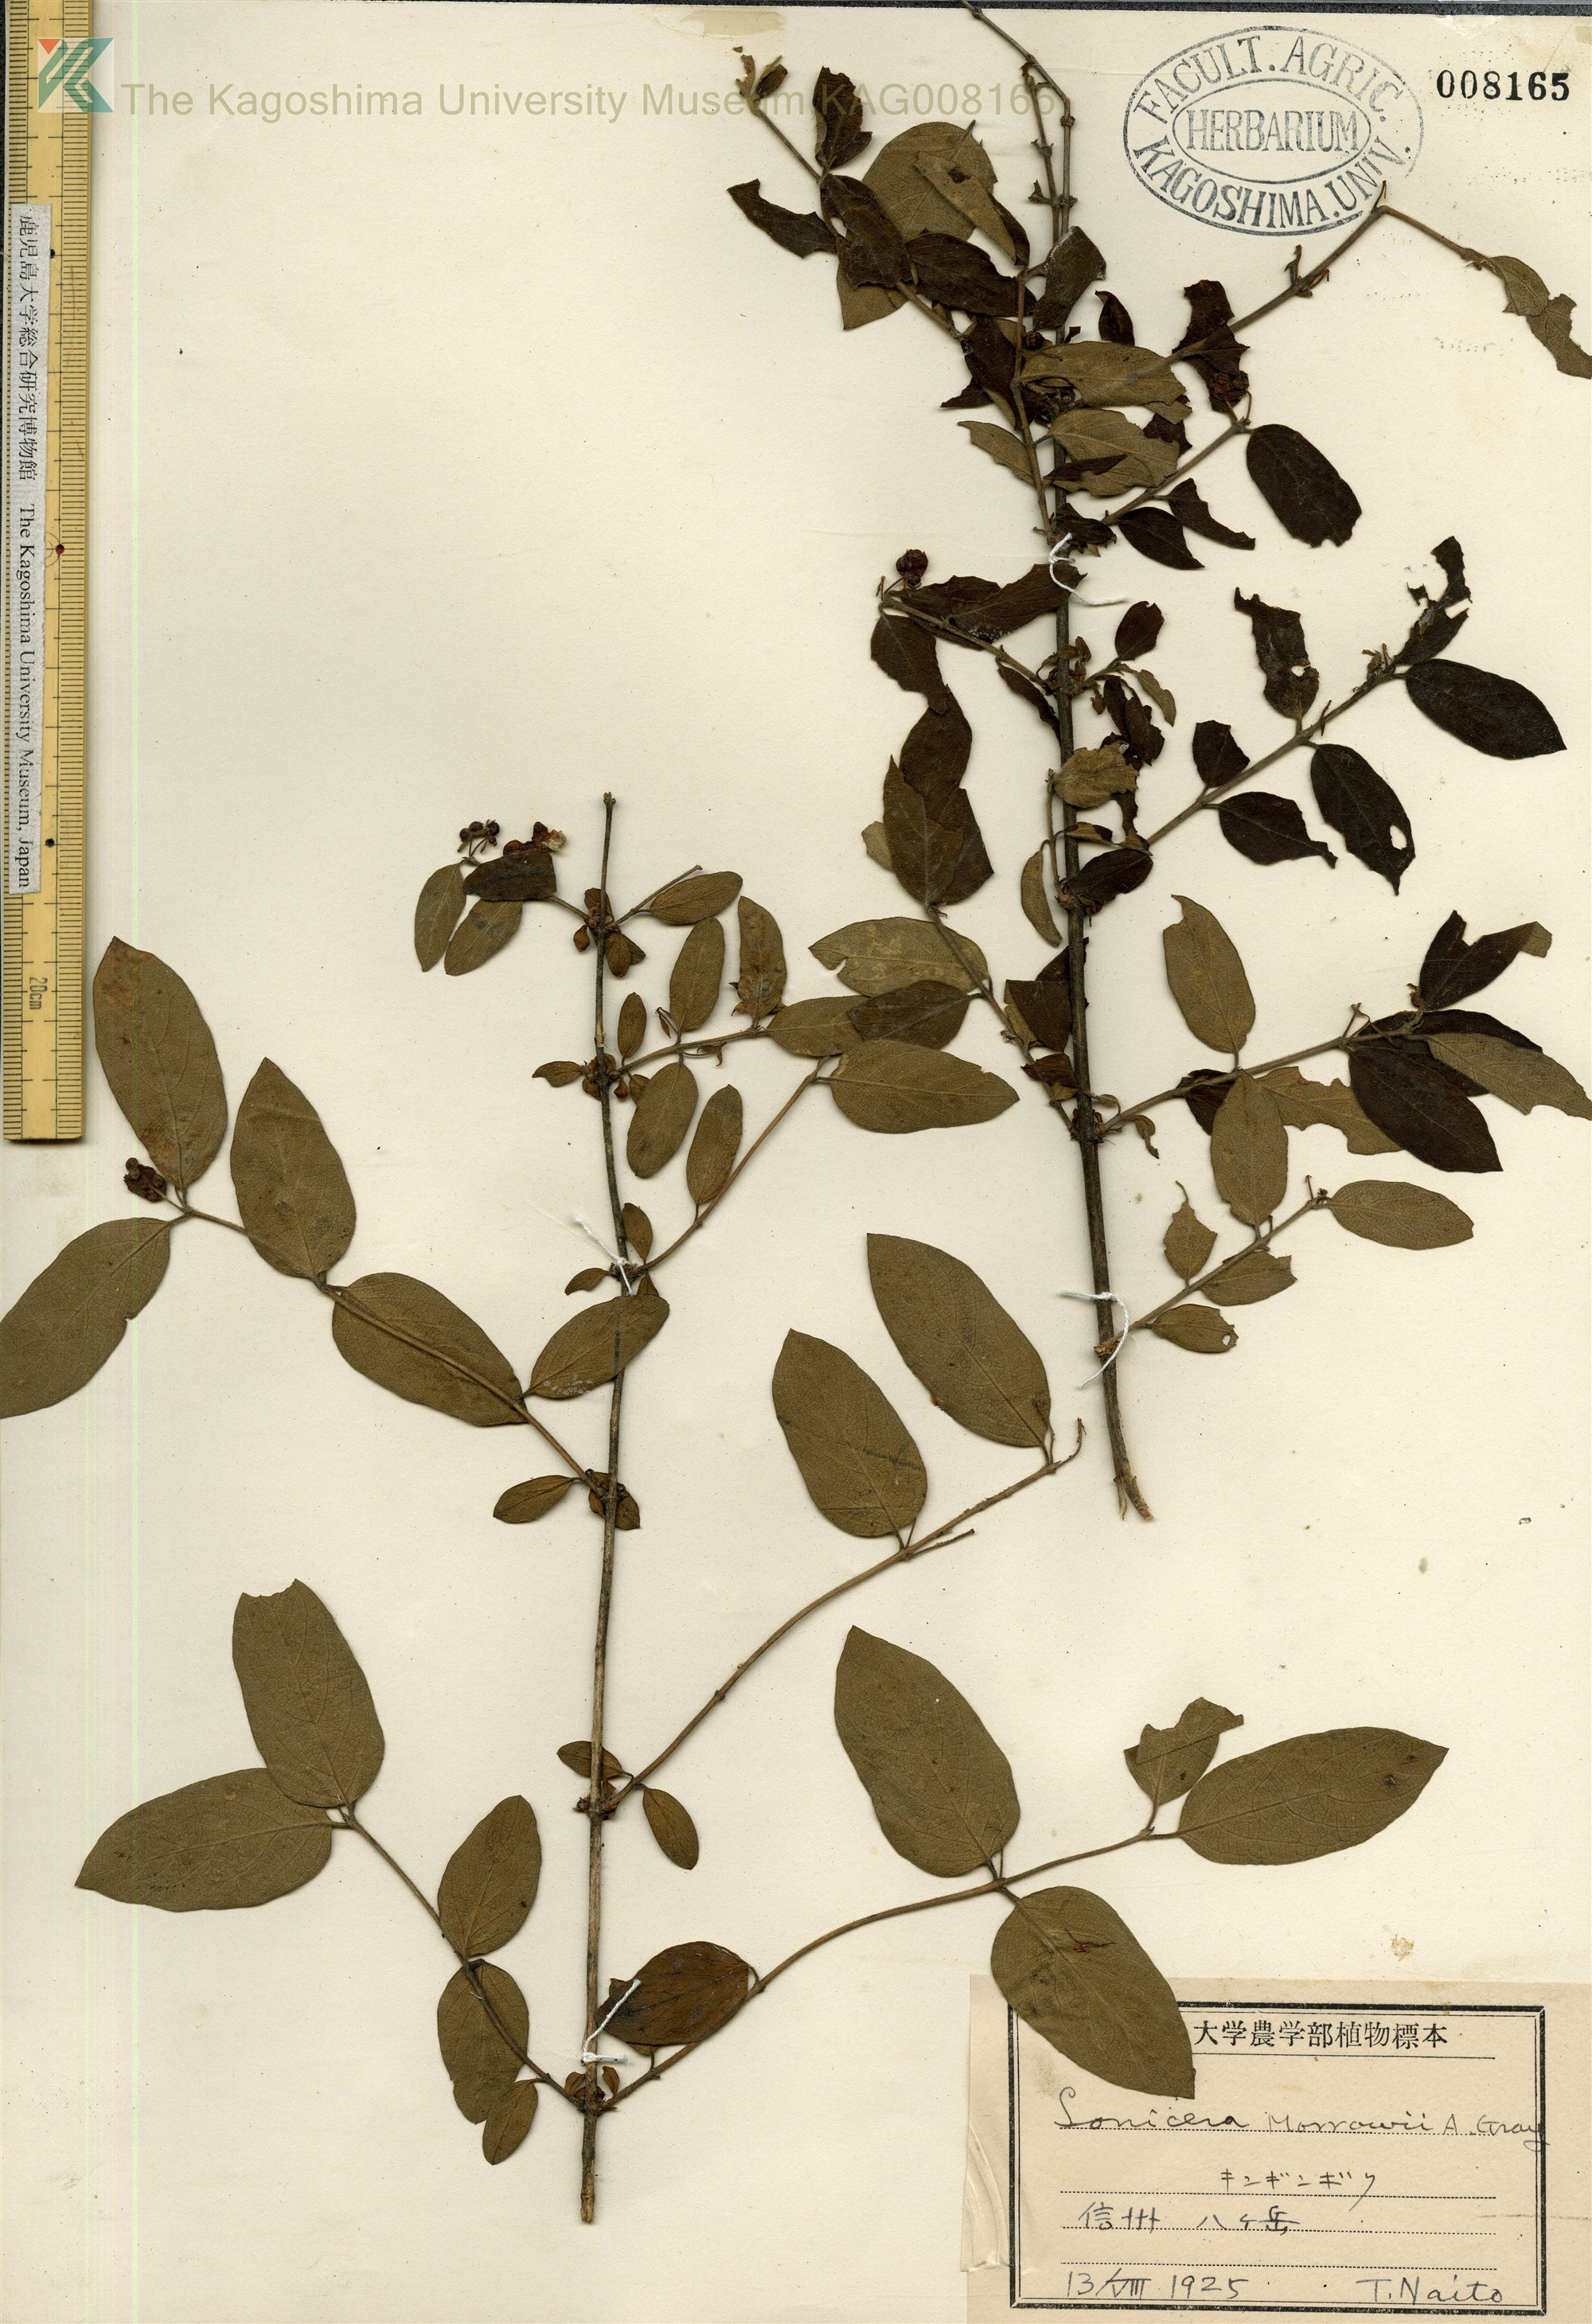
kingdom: Plantae
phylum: Tracheophyta
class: Magnoliopsida
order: Dipsacales
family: Caprifoliaceae
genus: Lonicera
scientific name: Lonicera morrowii
